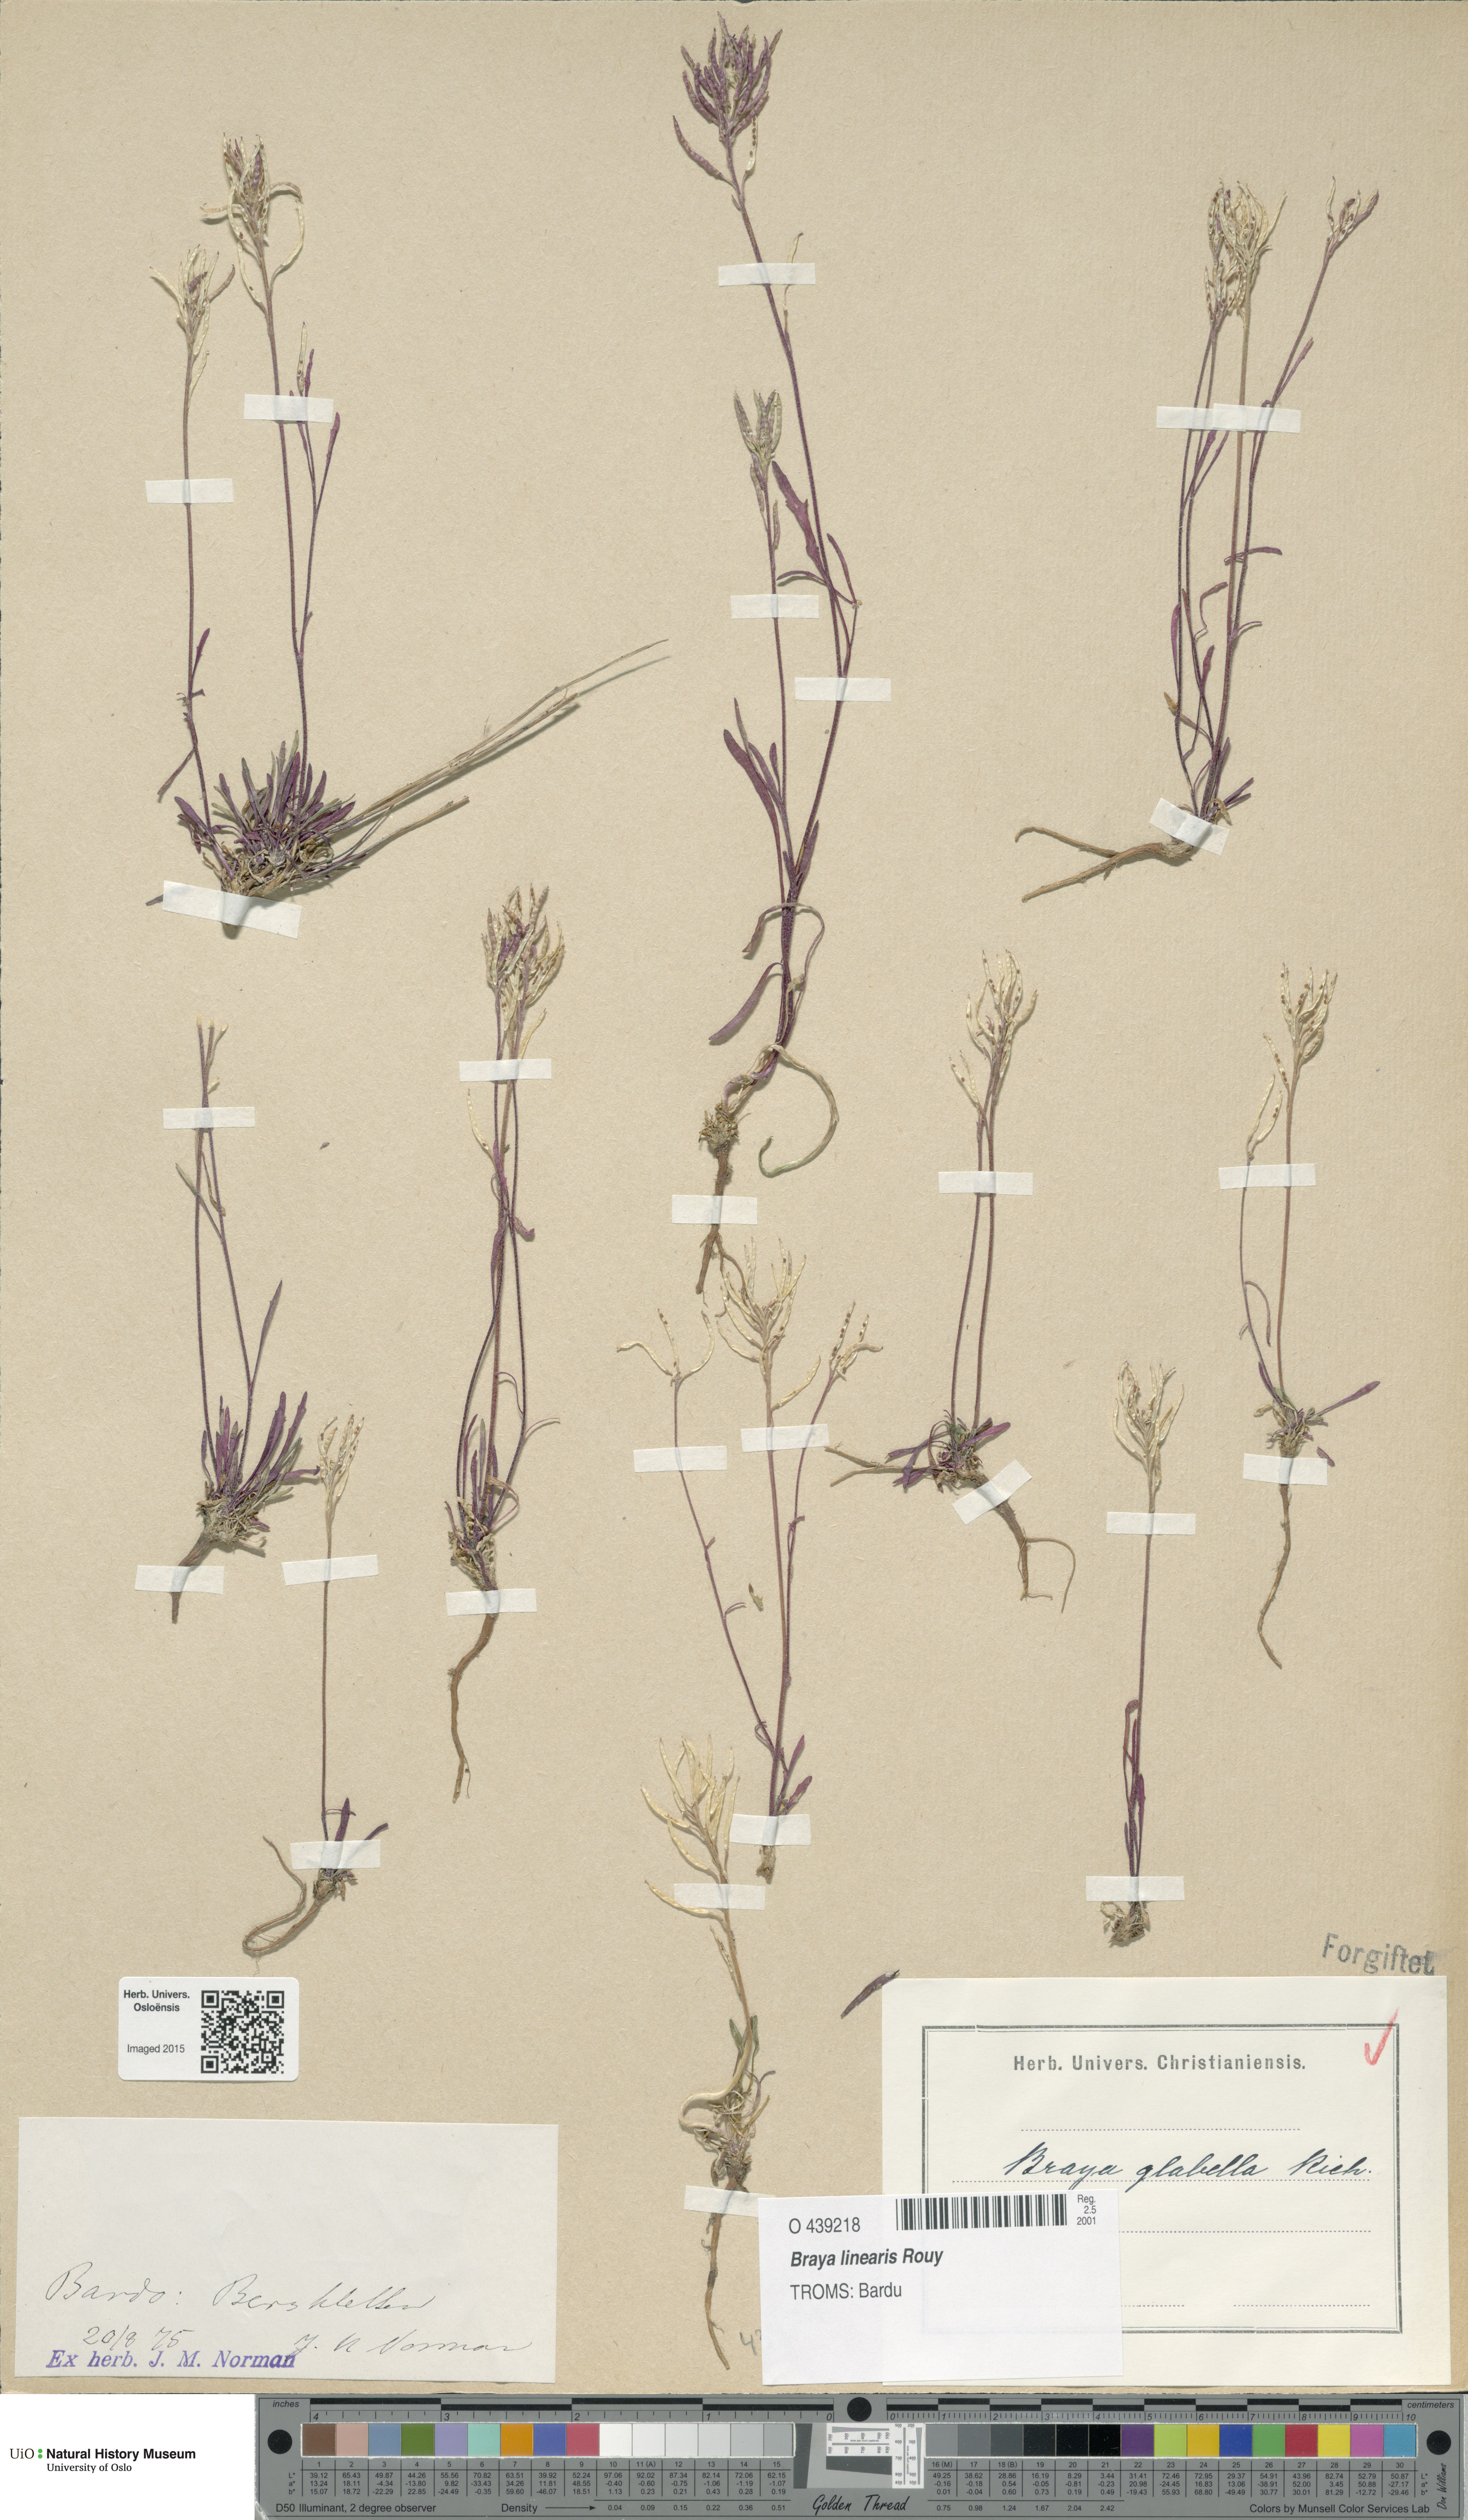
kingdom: Plantae
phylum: Tracheophyta
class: Magnoliopsida
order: Brassicales
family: Brassicaceae
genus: Braya
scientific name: Braya glabella
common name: Smooth braya
